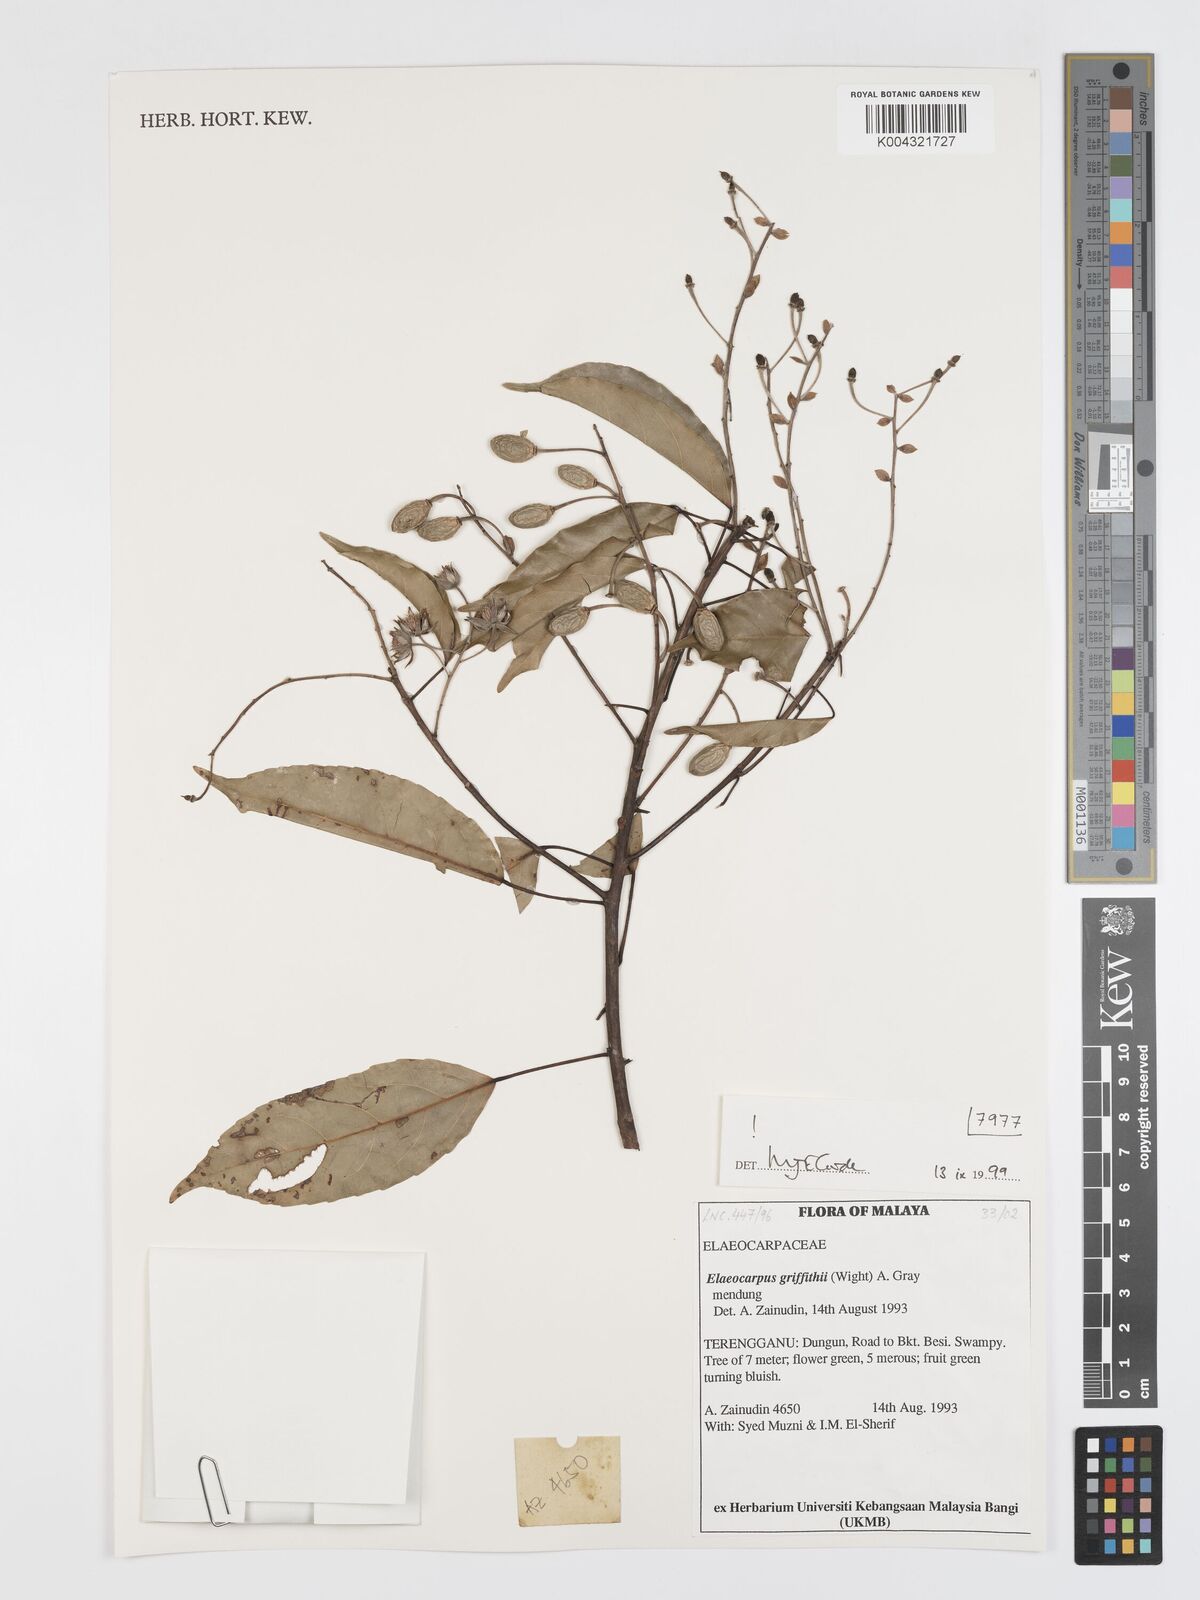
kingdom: Plantae
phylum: Tracheophyta
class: Magnoliopsida
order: Oxalidales
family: Elaeocarpaceae
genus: Elaeocarpus
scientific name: Elaeocarpus griffithii
